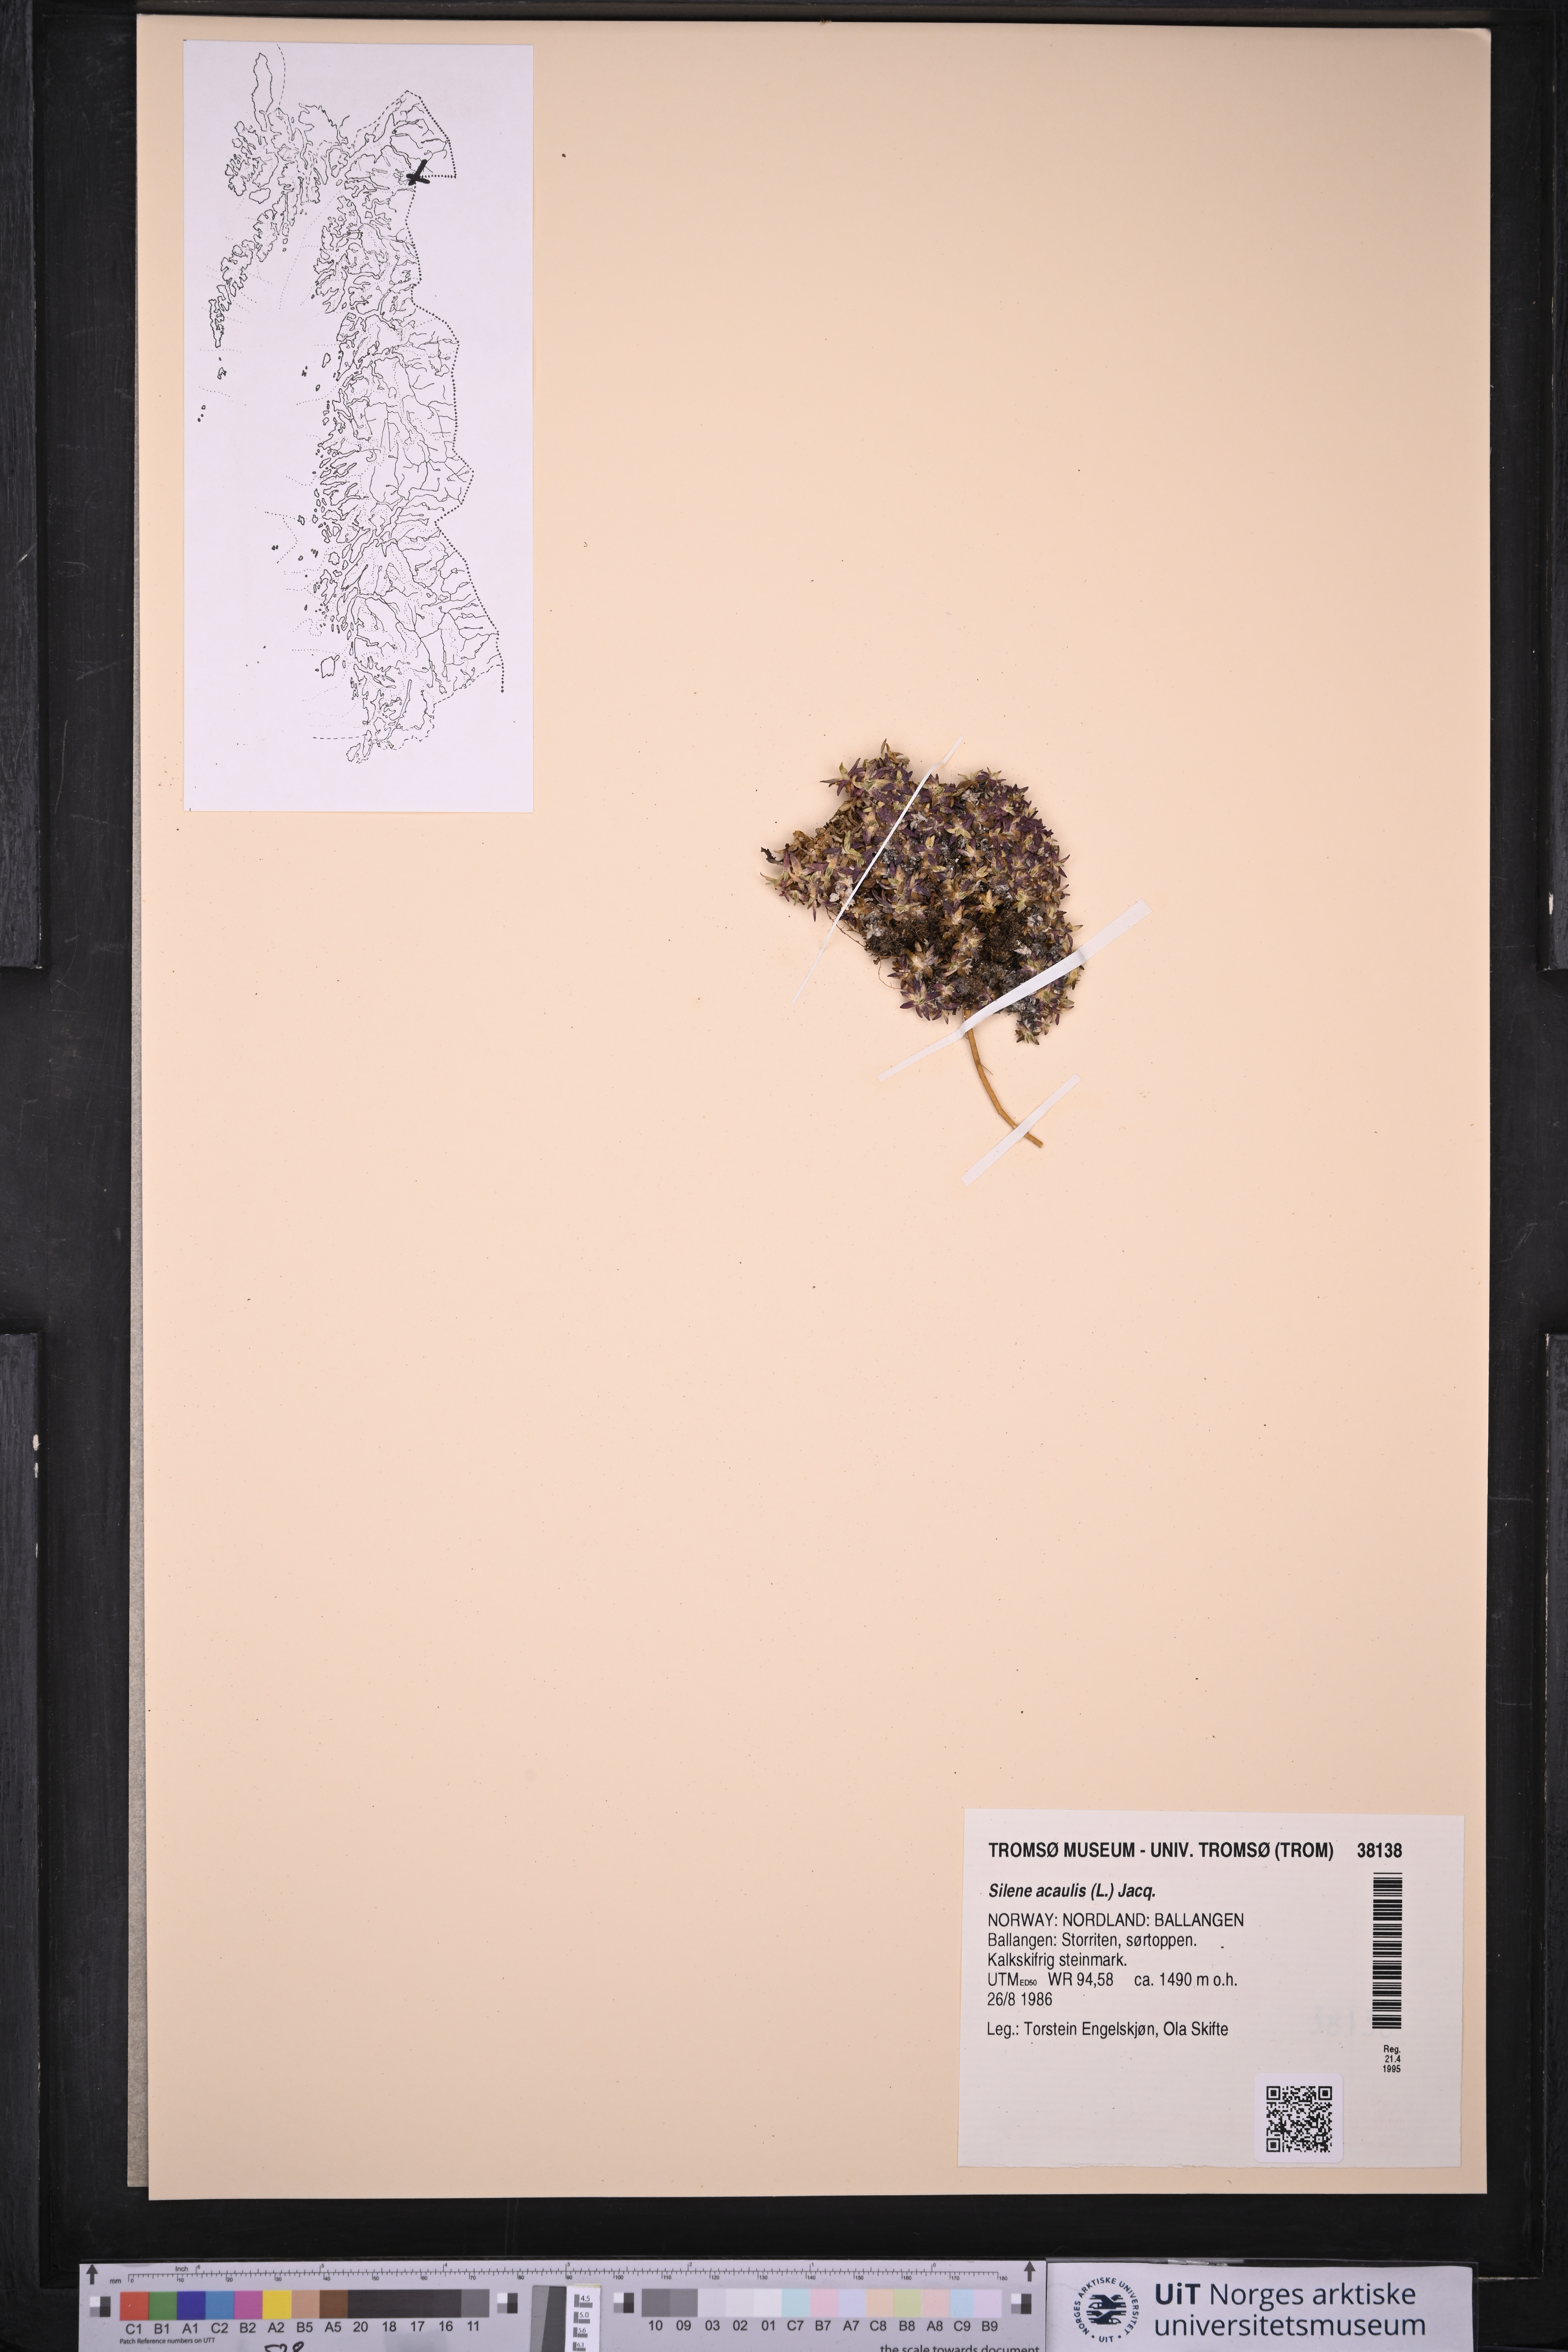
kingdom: Plantae
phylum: Tracheophyta
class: Magnoliopsida
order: Caryophyllales
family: Caryophyllaceae
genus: Silene
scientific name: Silene acaulis
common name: Moss campion
